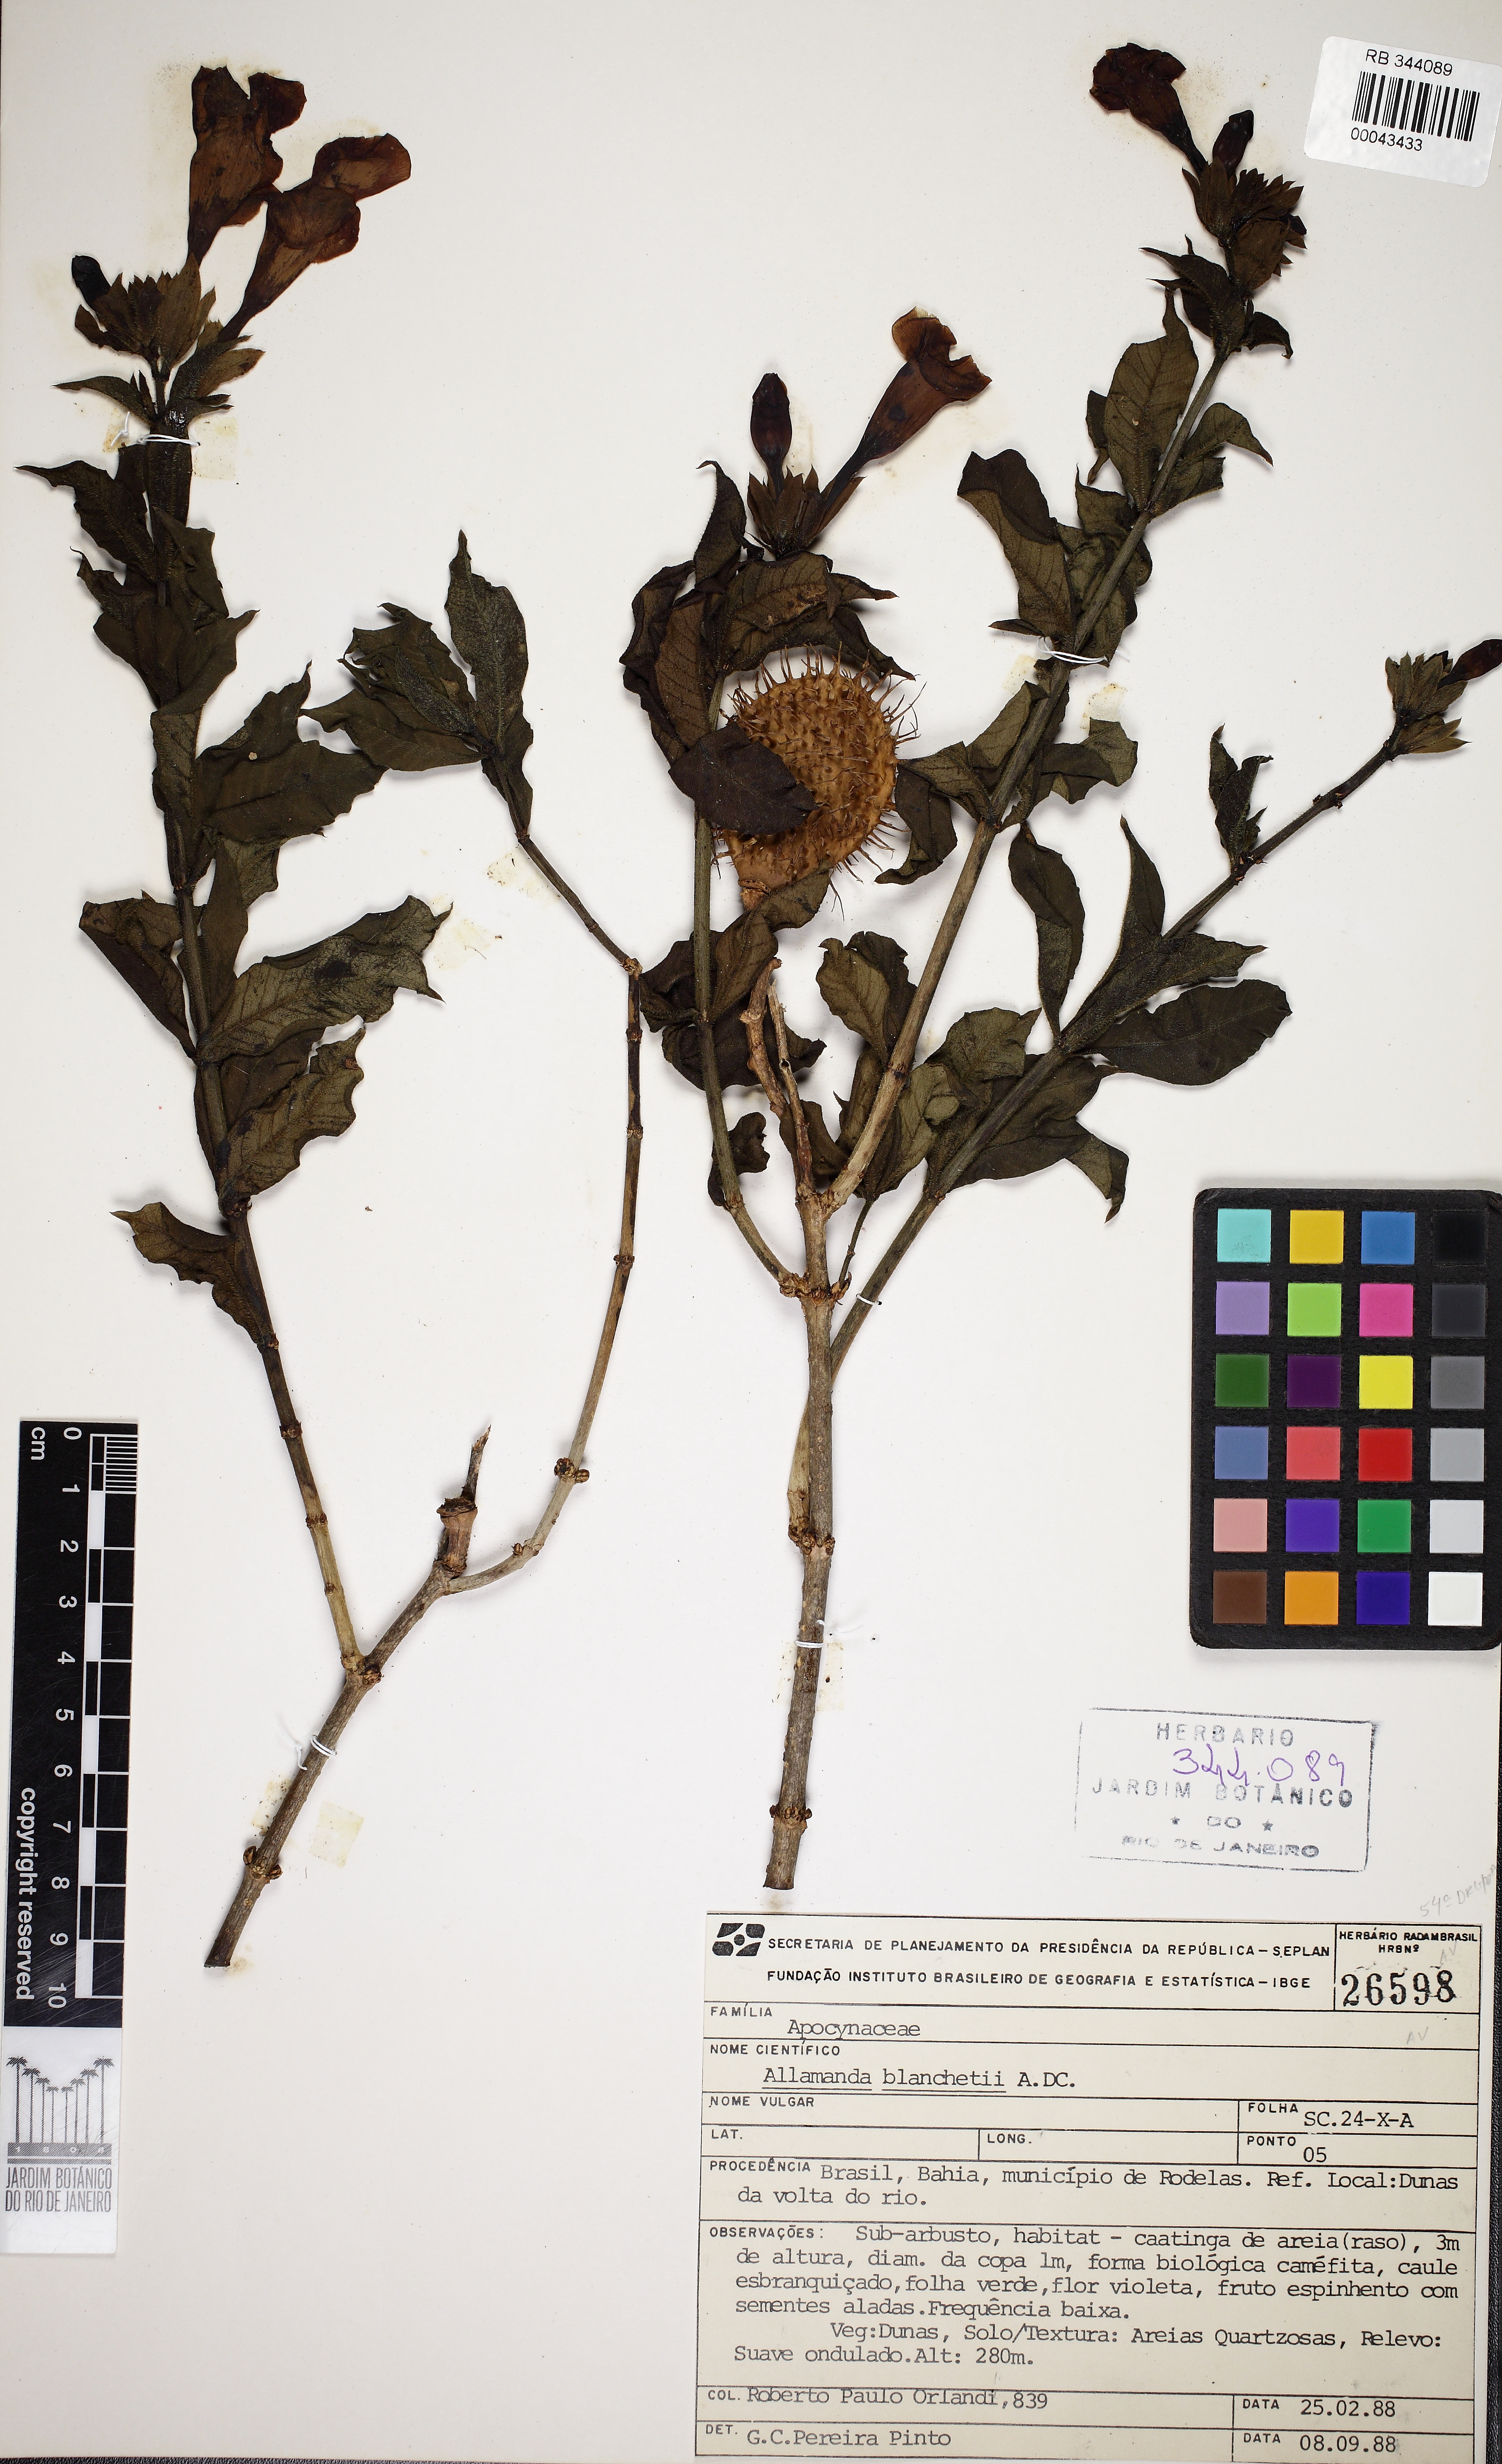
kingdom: Plantae
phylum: Tracheophyta
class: Magnoliopsida
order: Gentianales
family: Apocynaceae
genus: Allamanda
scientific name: Allamanda blanchetii
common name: Purple allamanda
